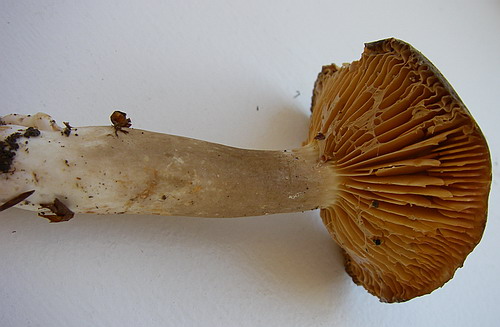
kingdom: Fungi
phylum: Basidiomycota
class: Agaricomycetes
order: Russulales
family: Russulaceae
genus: Lactarius
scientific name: Lactarius romagnesii
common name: fjernbladet mælkehat
